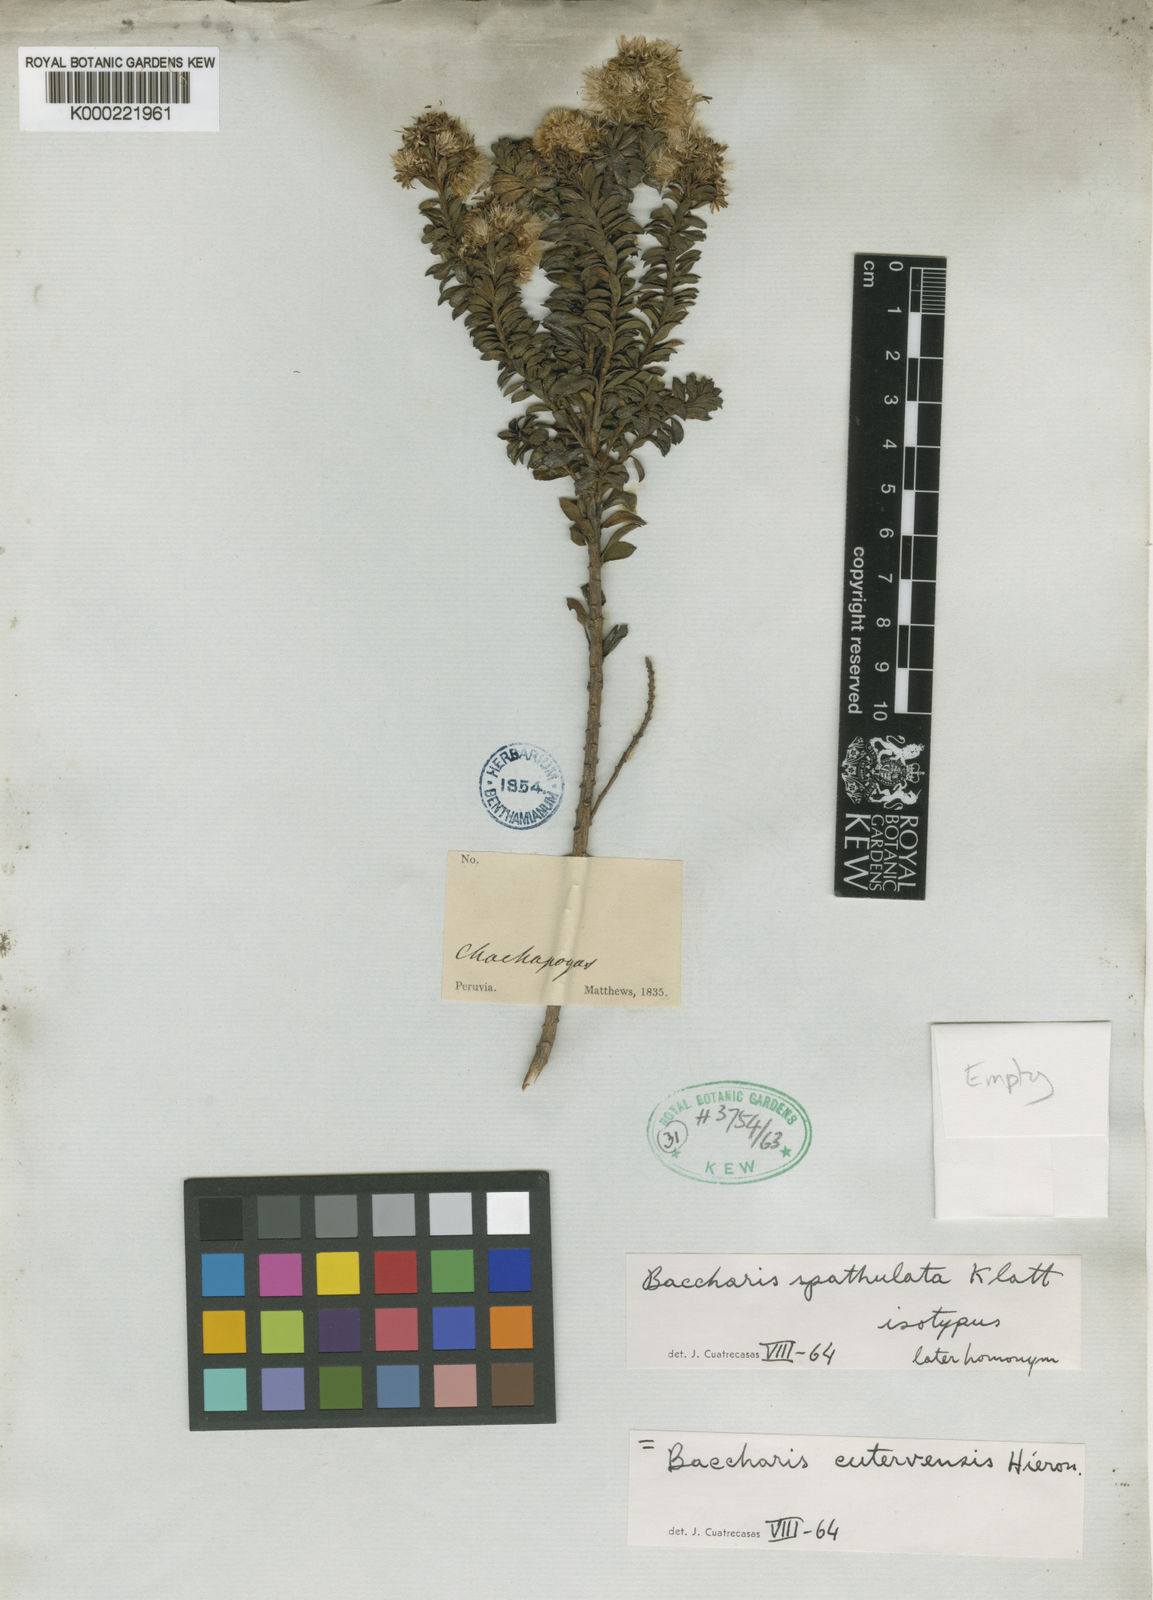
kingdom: Plantae
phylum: Tracheophyta
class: Magnoliopsida
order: Asterales
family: Asteraceae
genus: Baccharis
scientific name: Baccharis cutervensis
